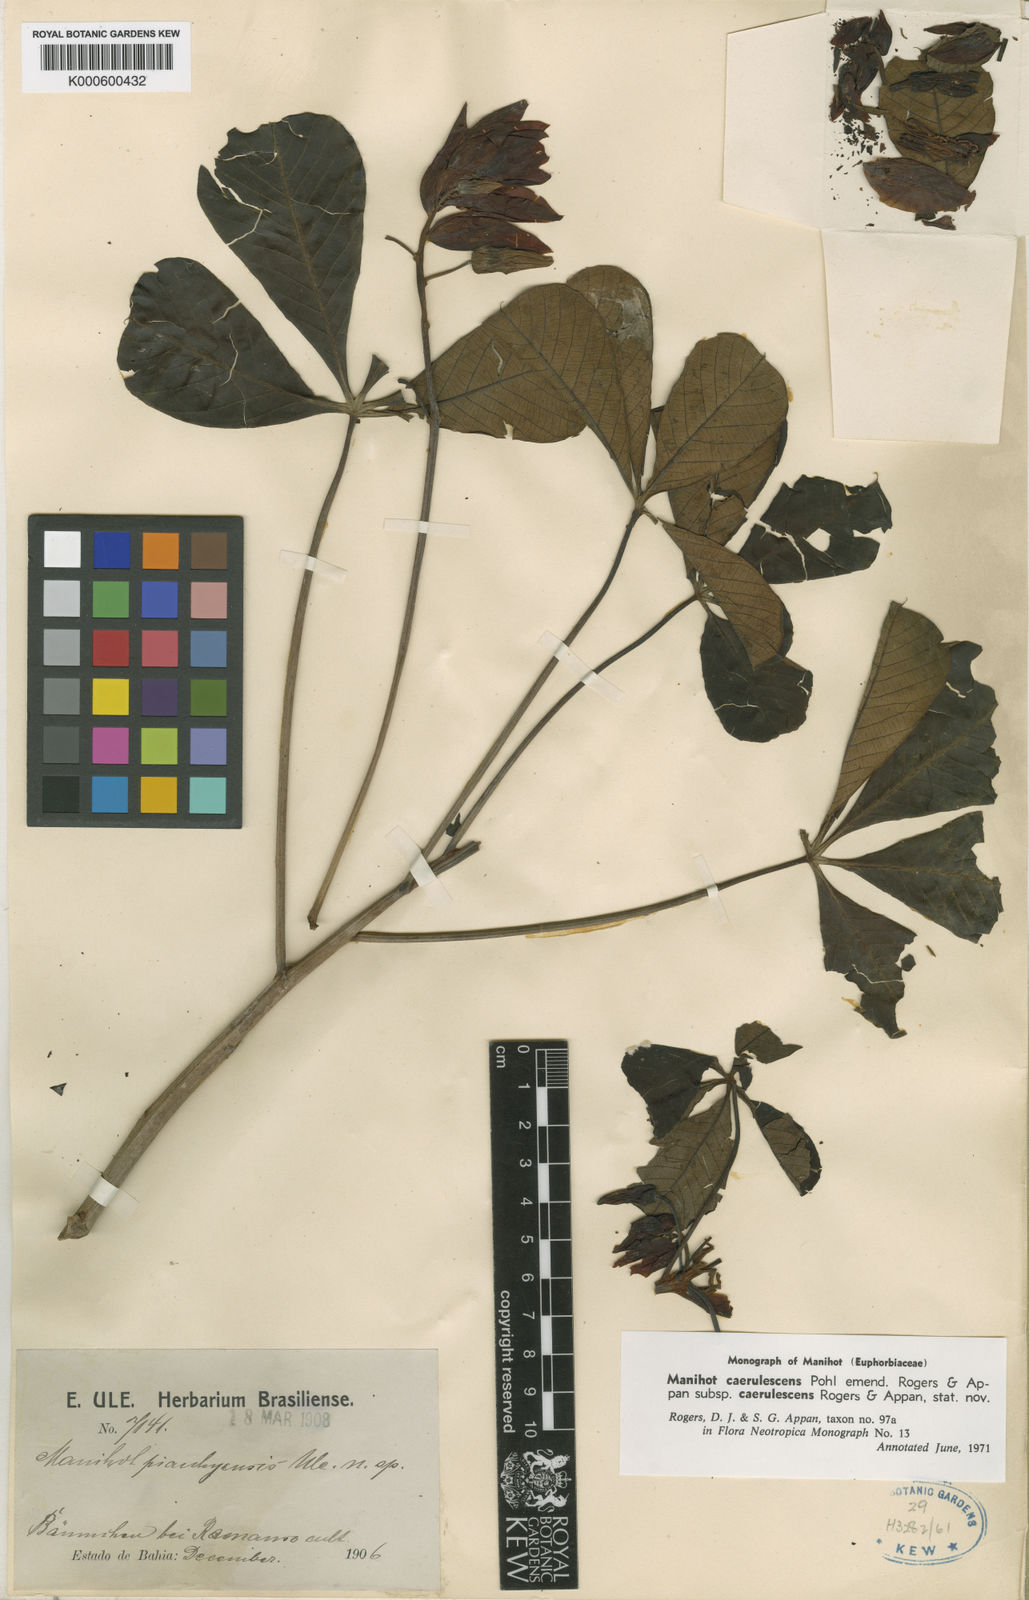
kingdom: Plantae
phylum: Tracheophyta
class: Magnoliopsida
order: Malpighiales
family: Euphorbiaceae
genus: Manihot
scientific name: Manihot caerulescens
